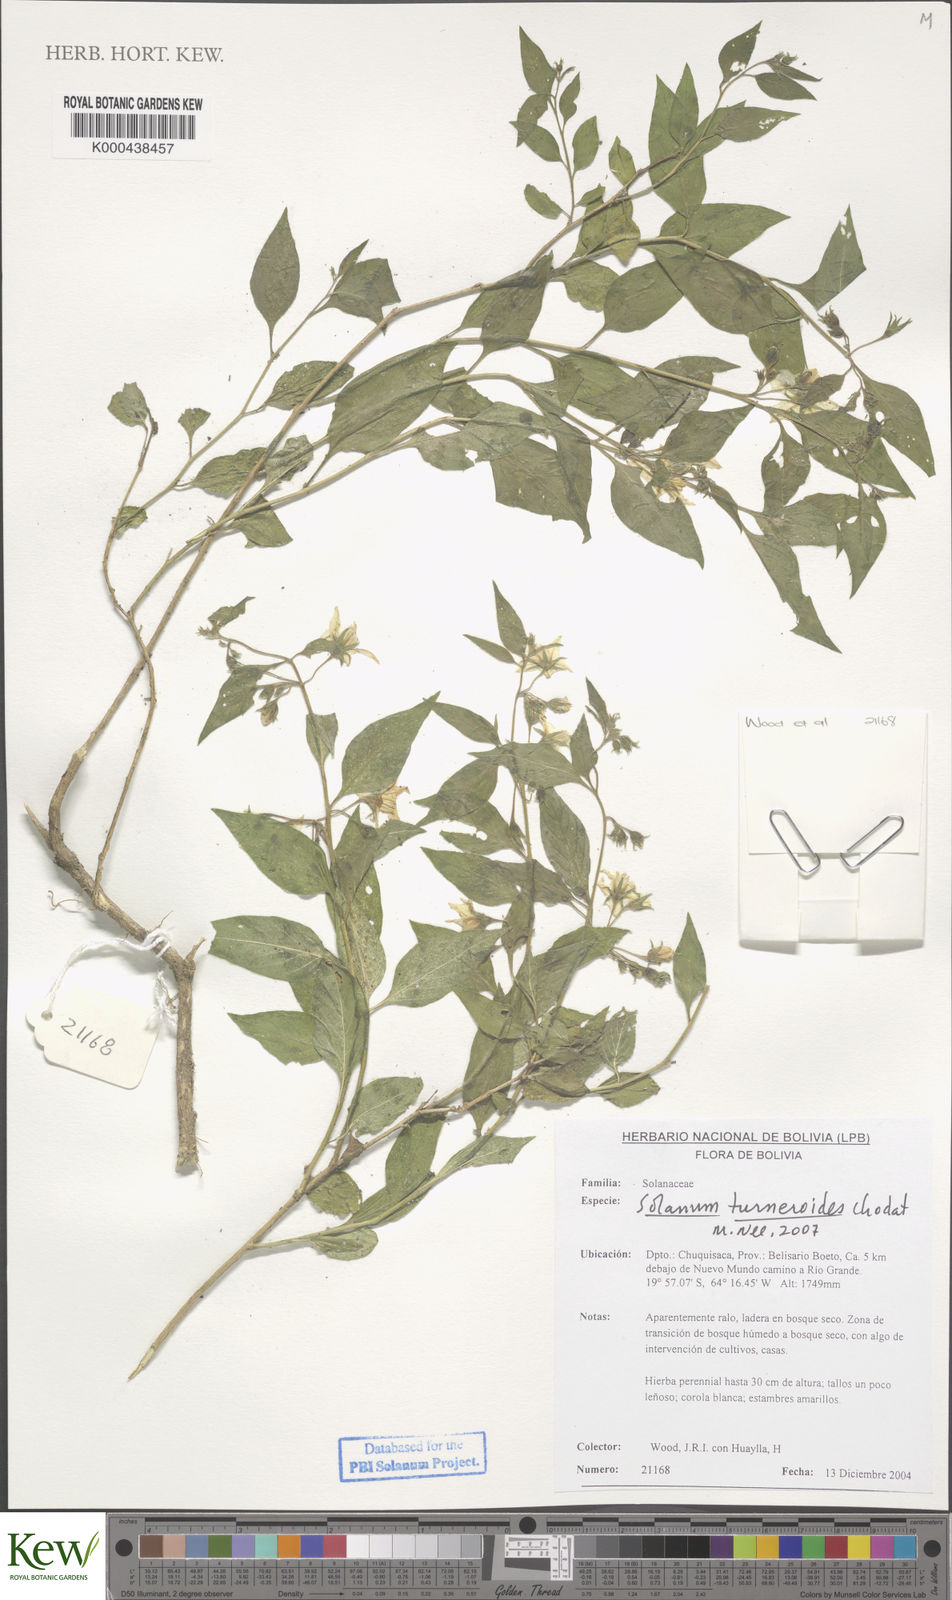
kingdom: Plantae
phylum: Tracheophyta
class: Magnoliopsida
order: Solanales
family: Solanaceae
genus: Solanum
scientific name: Solanum turneroides
